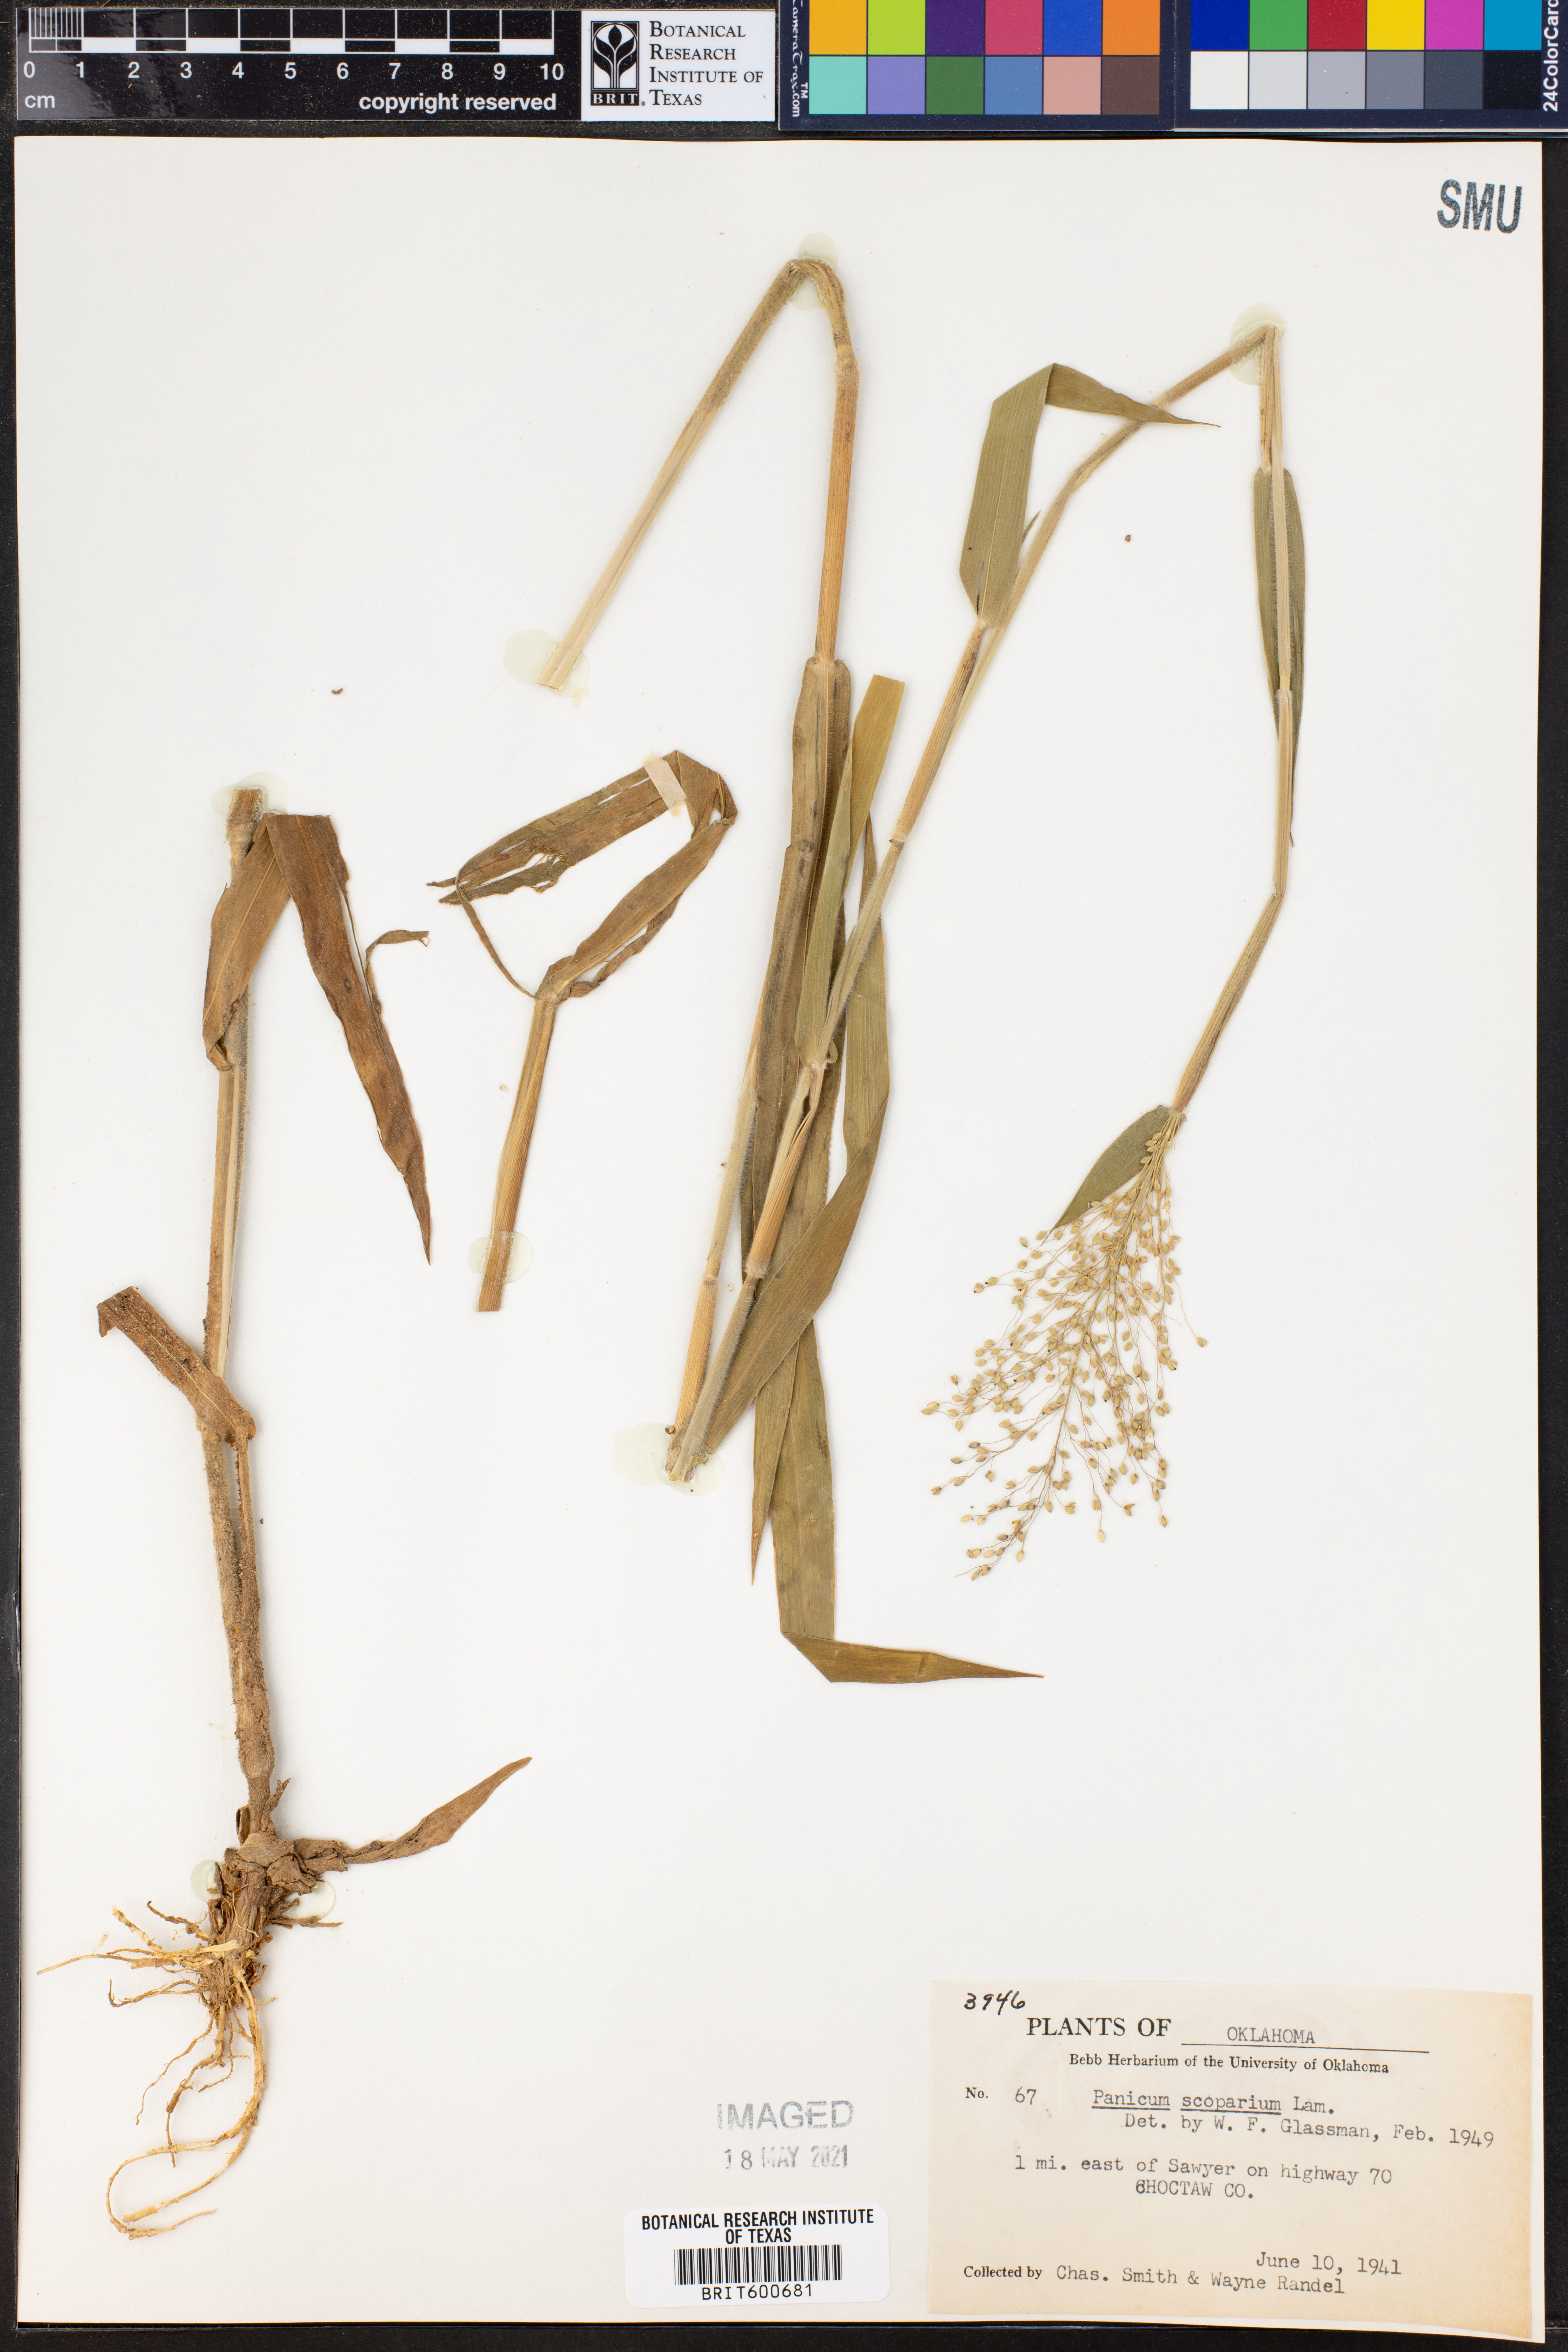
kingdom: Plantae
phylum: Tracheophyta
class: Liliopsida
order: Poales
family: Poaceae
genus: Dichanthelium
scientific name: Dichanthelium scribnerianum
